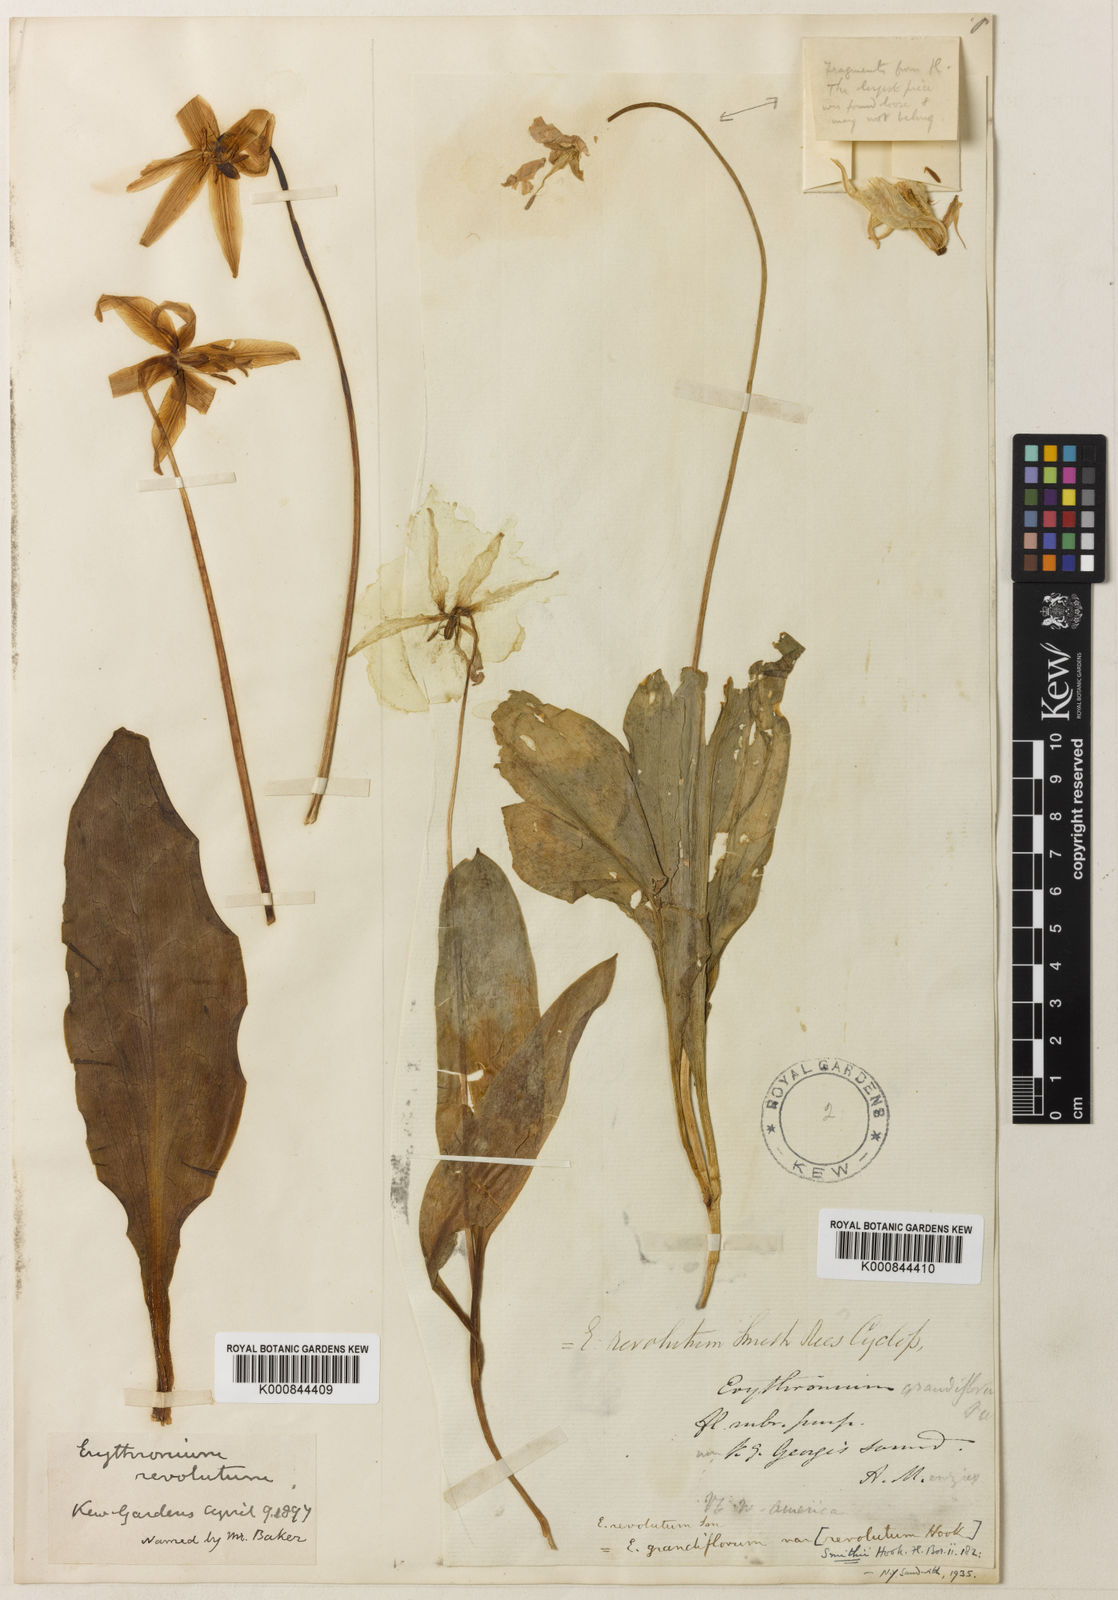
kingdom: Plantae
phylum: Tracheophyta
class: Liliopsida
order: Liliales
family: Liliaceae
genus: Erythronium
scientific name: Erythronium revolutum
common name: Pink fawn-lily
